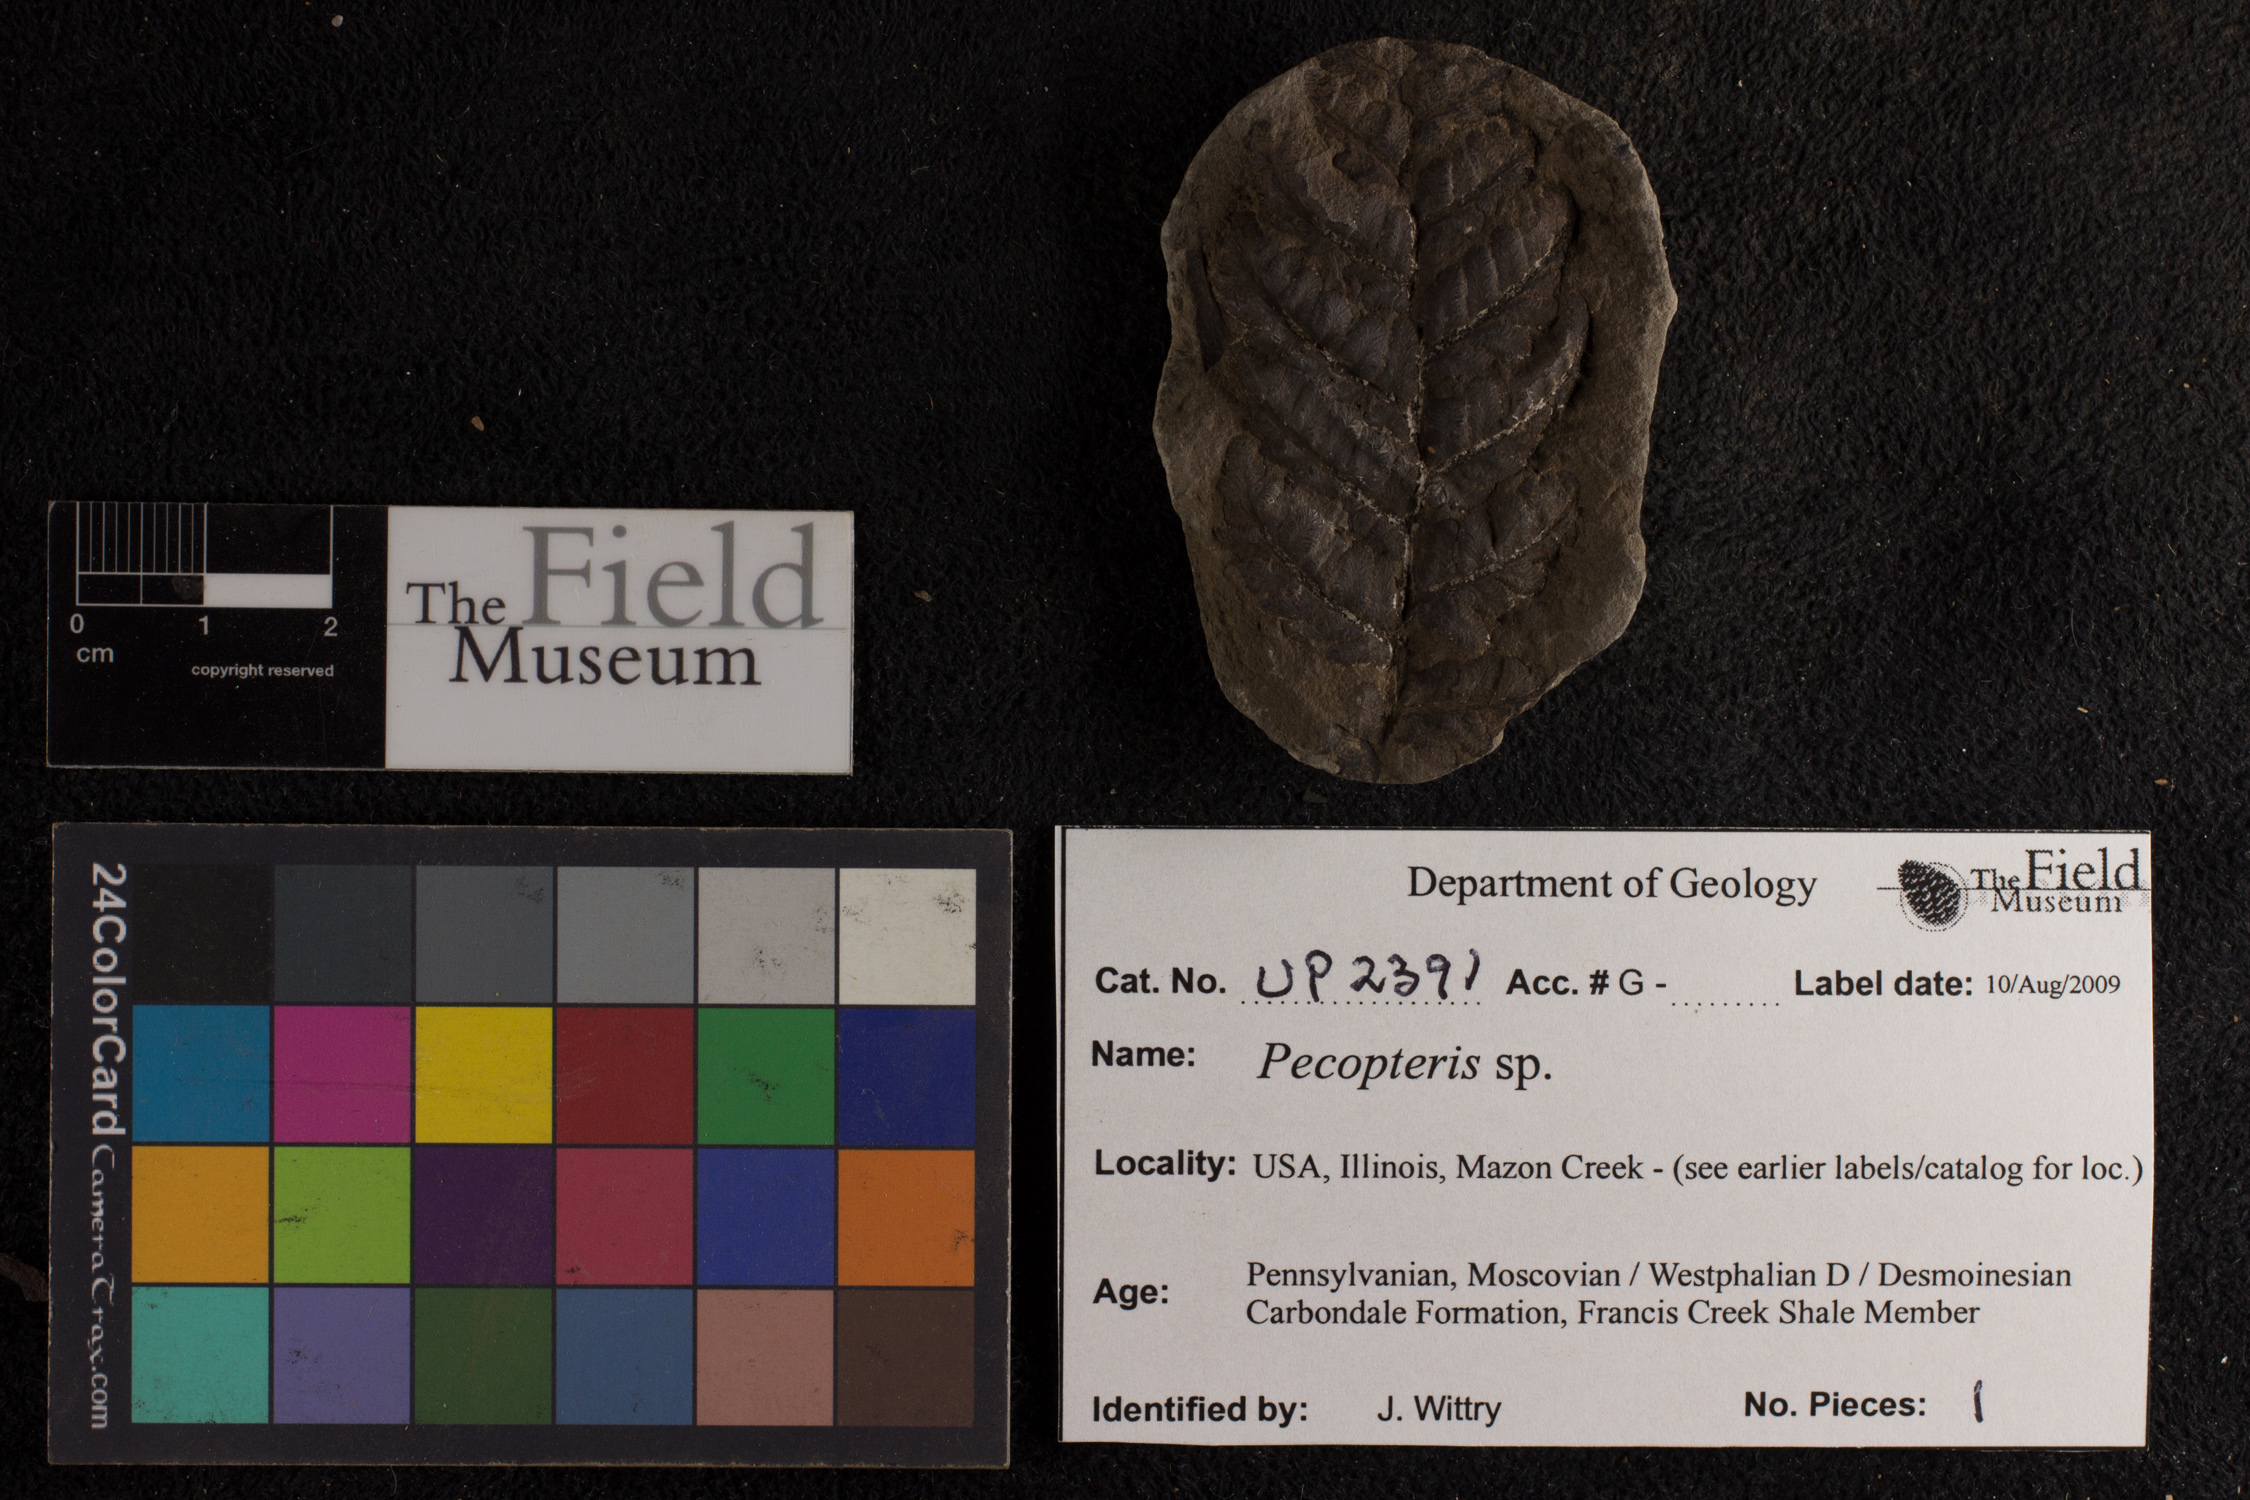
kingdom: Plantae
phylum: Tracheophyta
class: Polypodiopsida
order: Marattiales
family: Asterothecaceae
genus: Pecopteris
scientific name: Pecopteris
